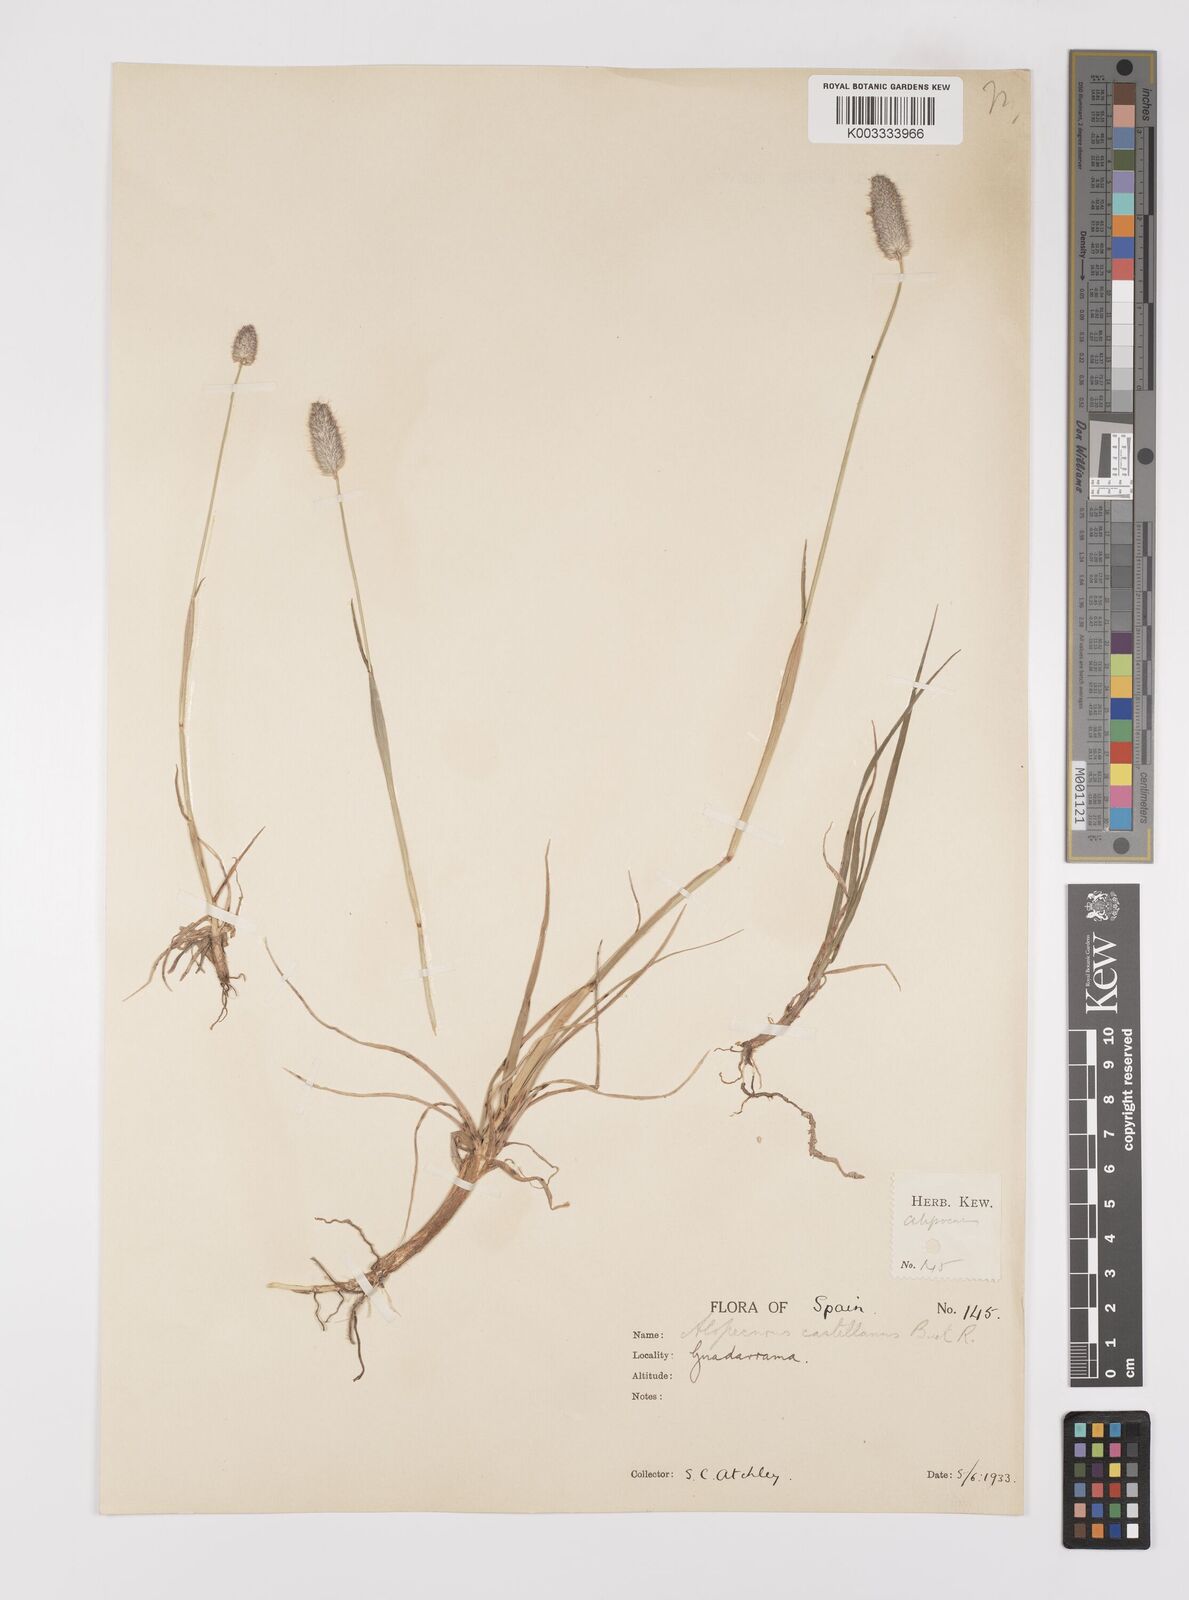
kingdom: Plantae
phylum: Tracheophyta
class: Liliopsida
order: Poales
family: Poaceae
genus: Alopecurus
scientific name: Alopecurus arundinaceus
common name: Creeping meadow foxtail
